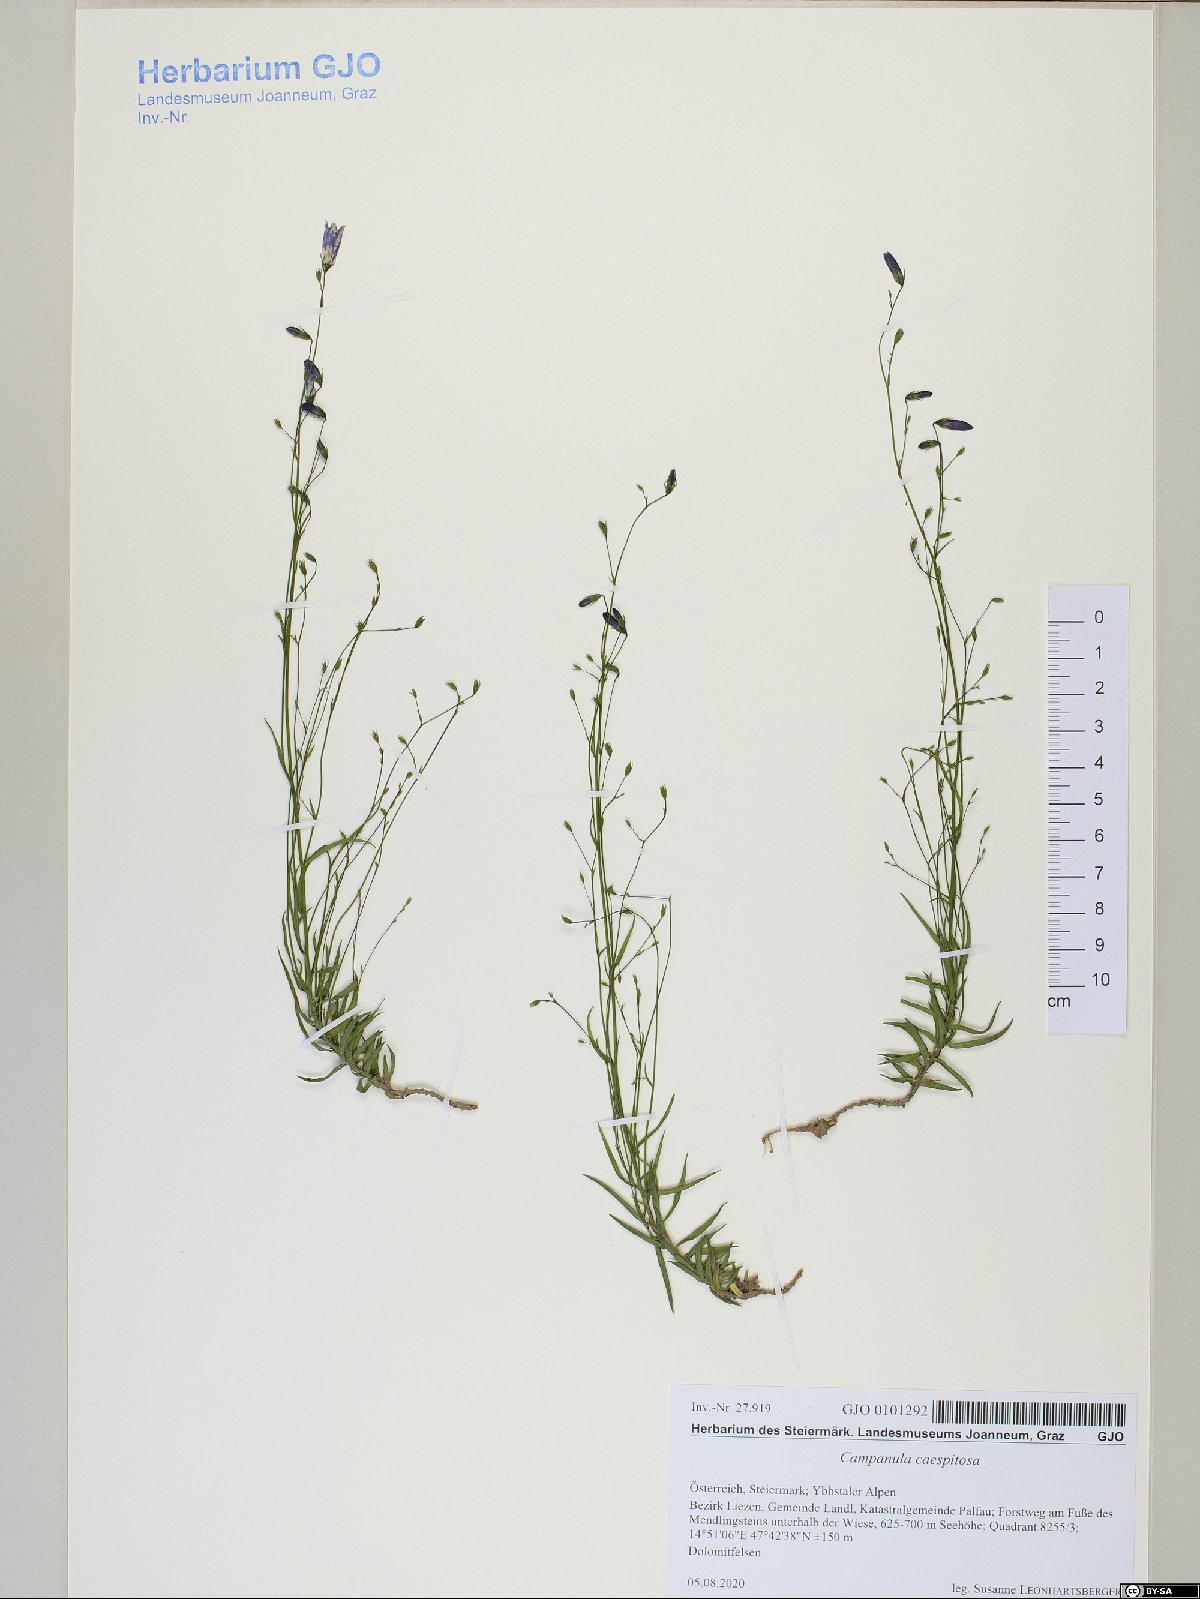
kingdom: Plantae
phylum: Tracheophyta
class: Magnoliopsida
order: Asterales
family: Campanulaceae
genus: Campanula
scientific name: Campanula caespitosa
